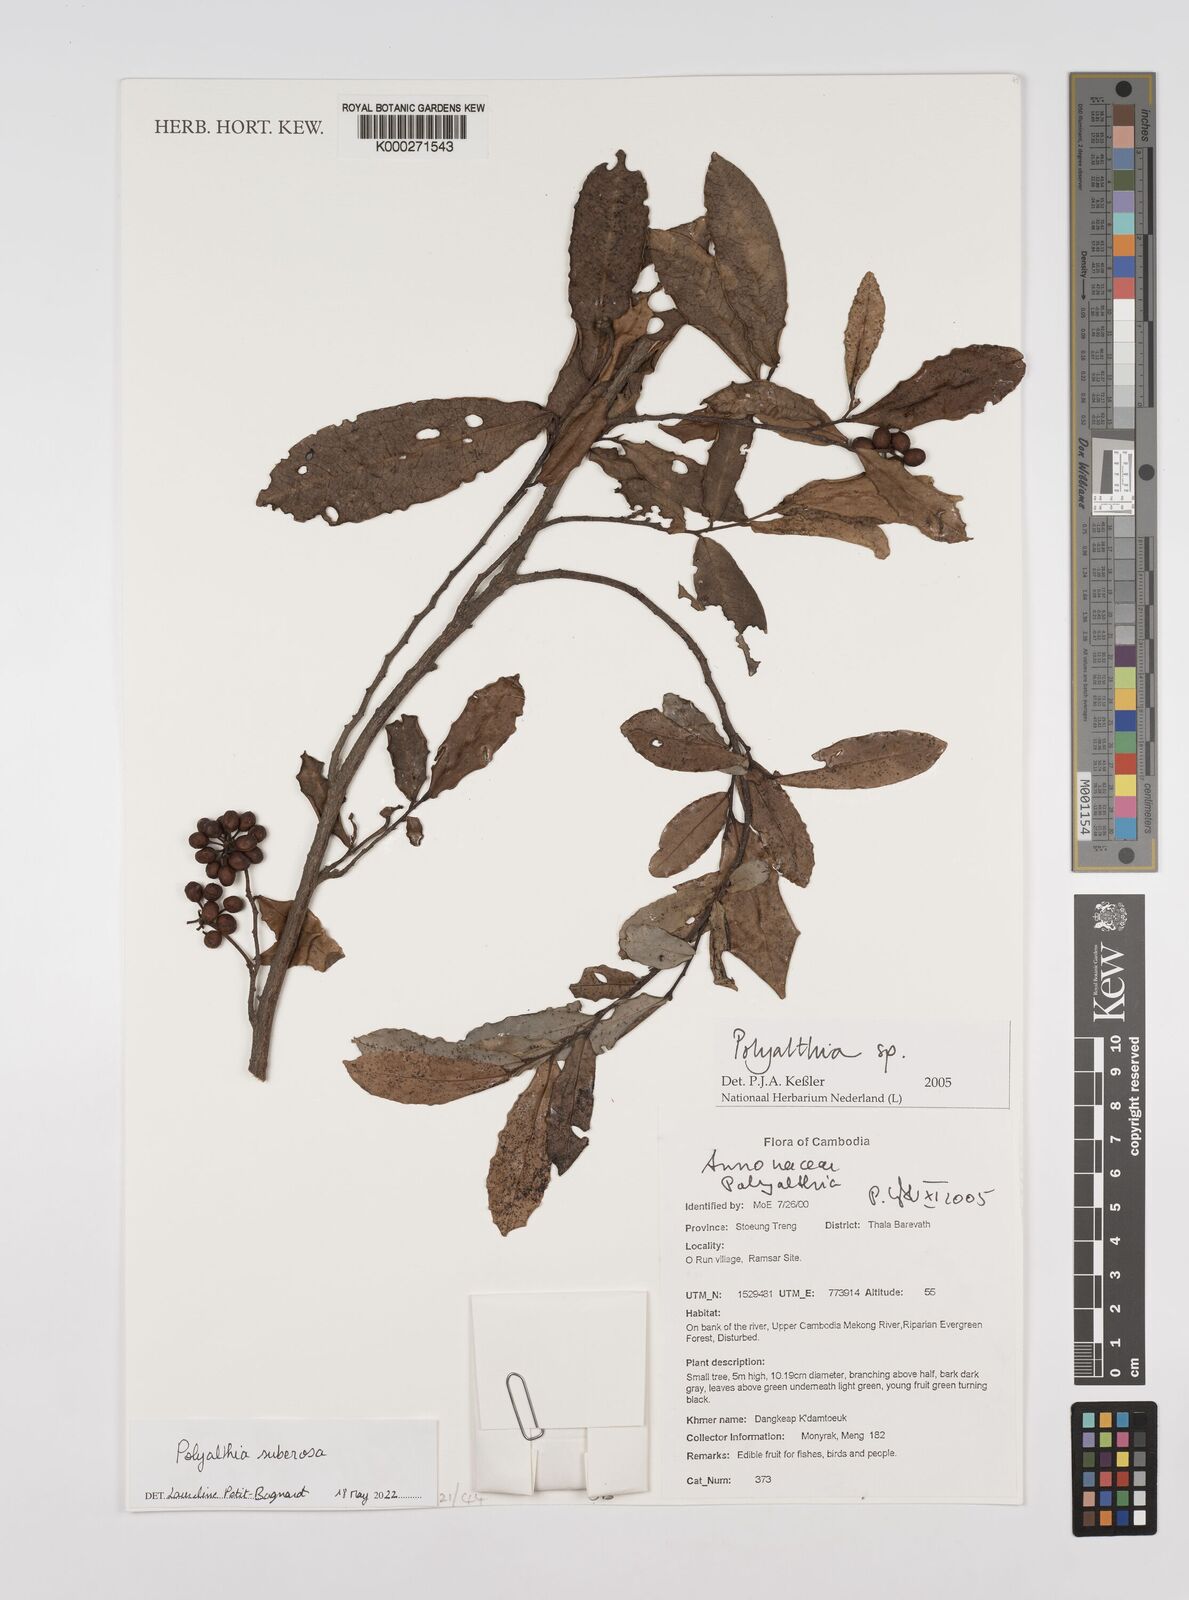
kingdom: Plantae
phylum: Tracheophyta
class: Magnoliopsida
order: Magnoliales
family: Annonaceae
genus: Polyalthia
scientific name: Polyalthia
